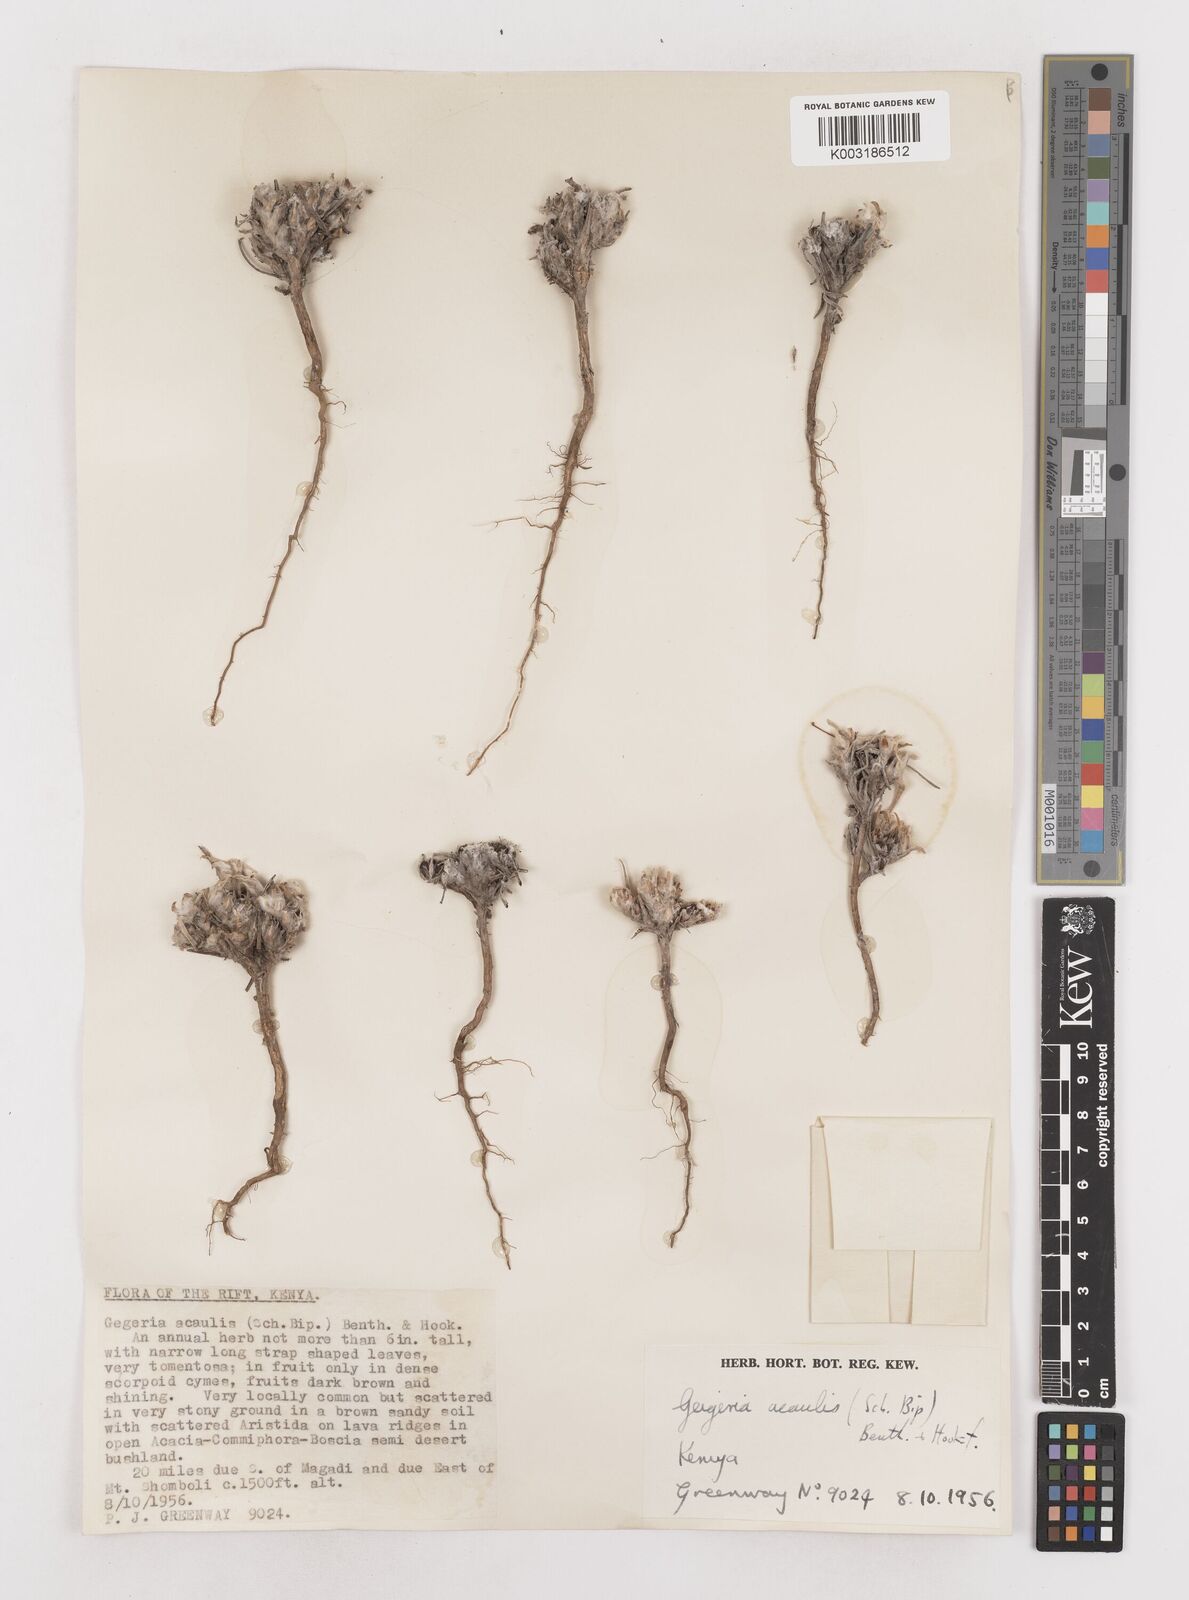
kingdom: Plantae
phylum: Tracheophyta
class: Magnoliopsida
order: Asterales
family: Asteraceae
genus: Geigeria
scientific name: Geigeria acaulis
